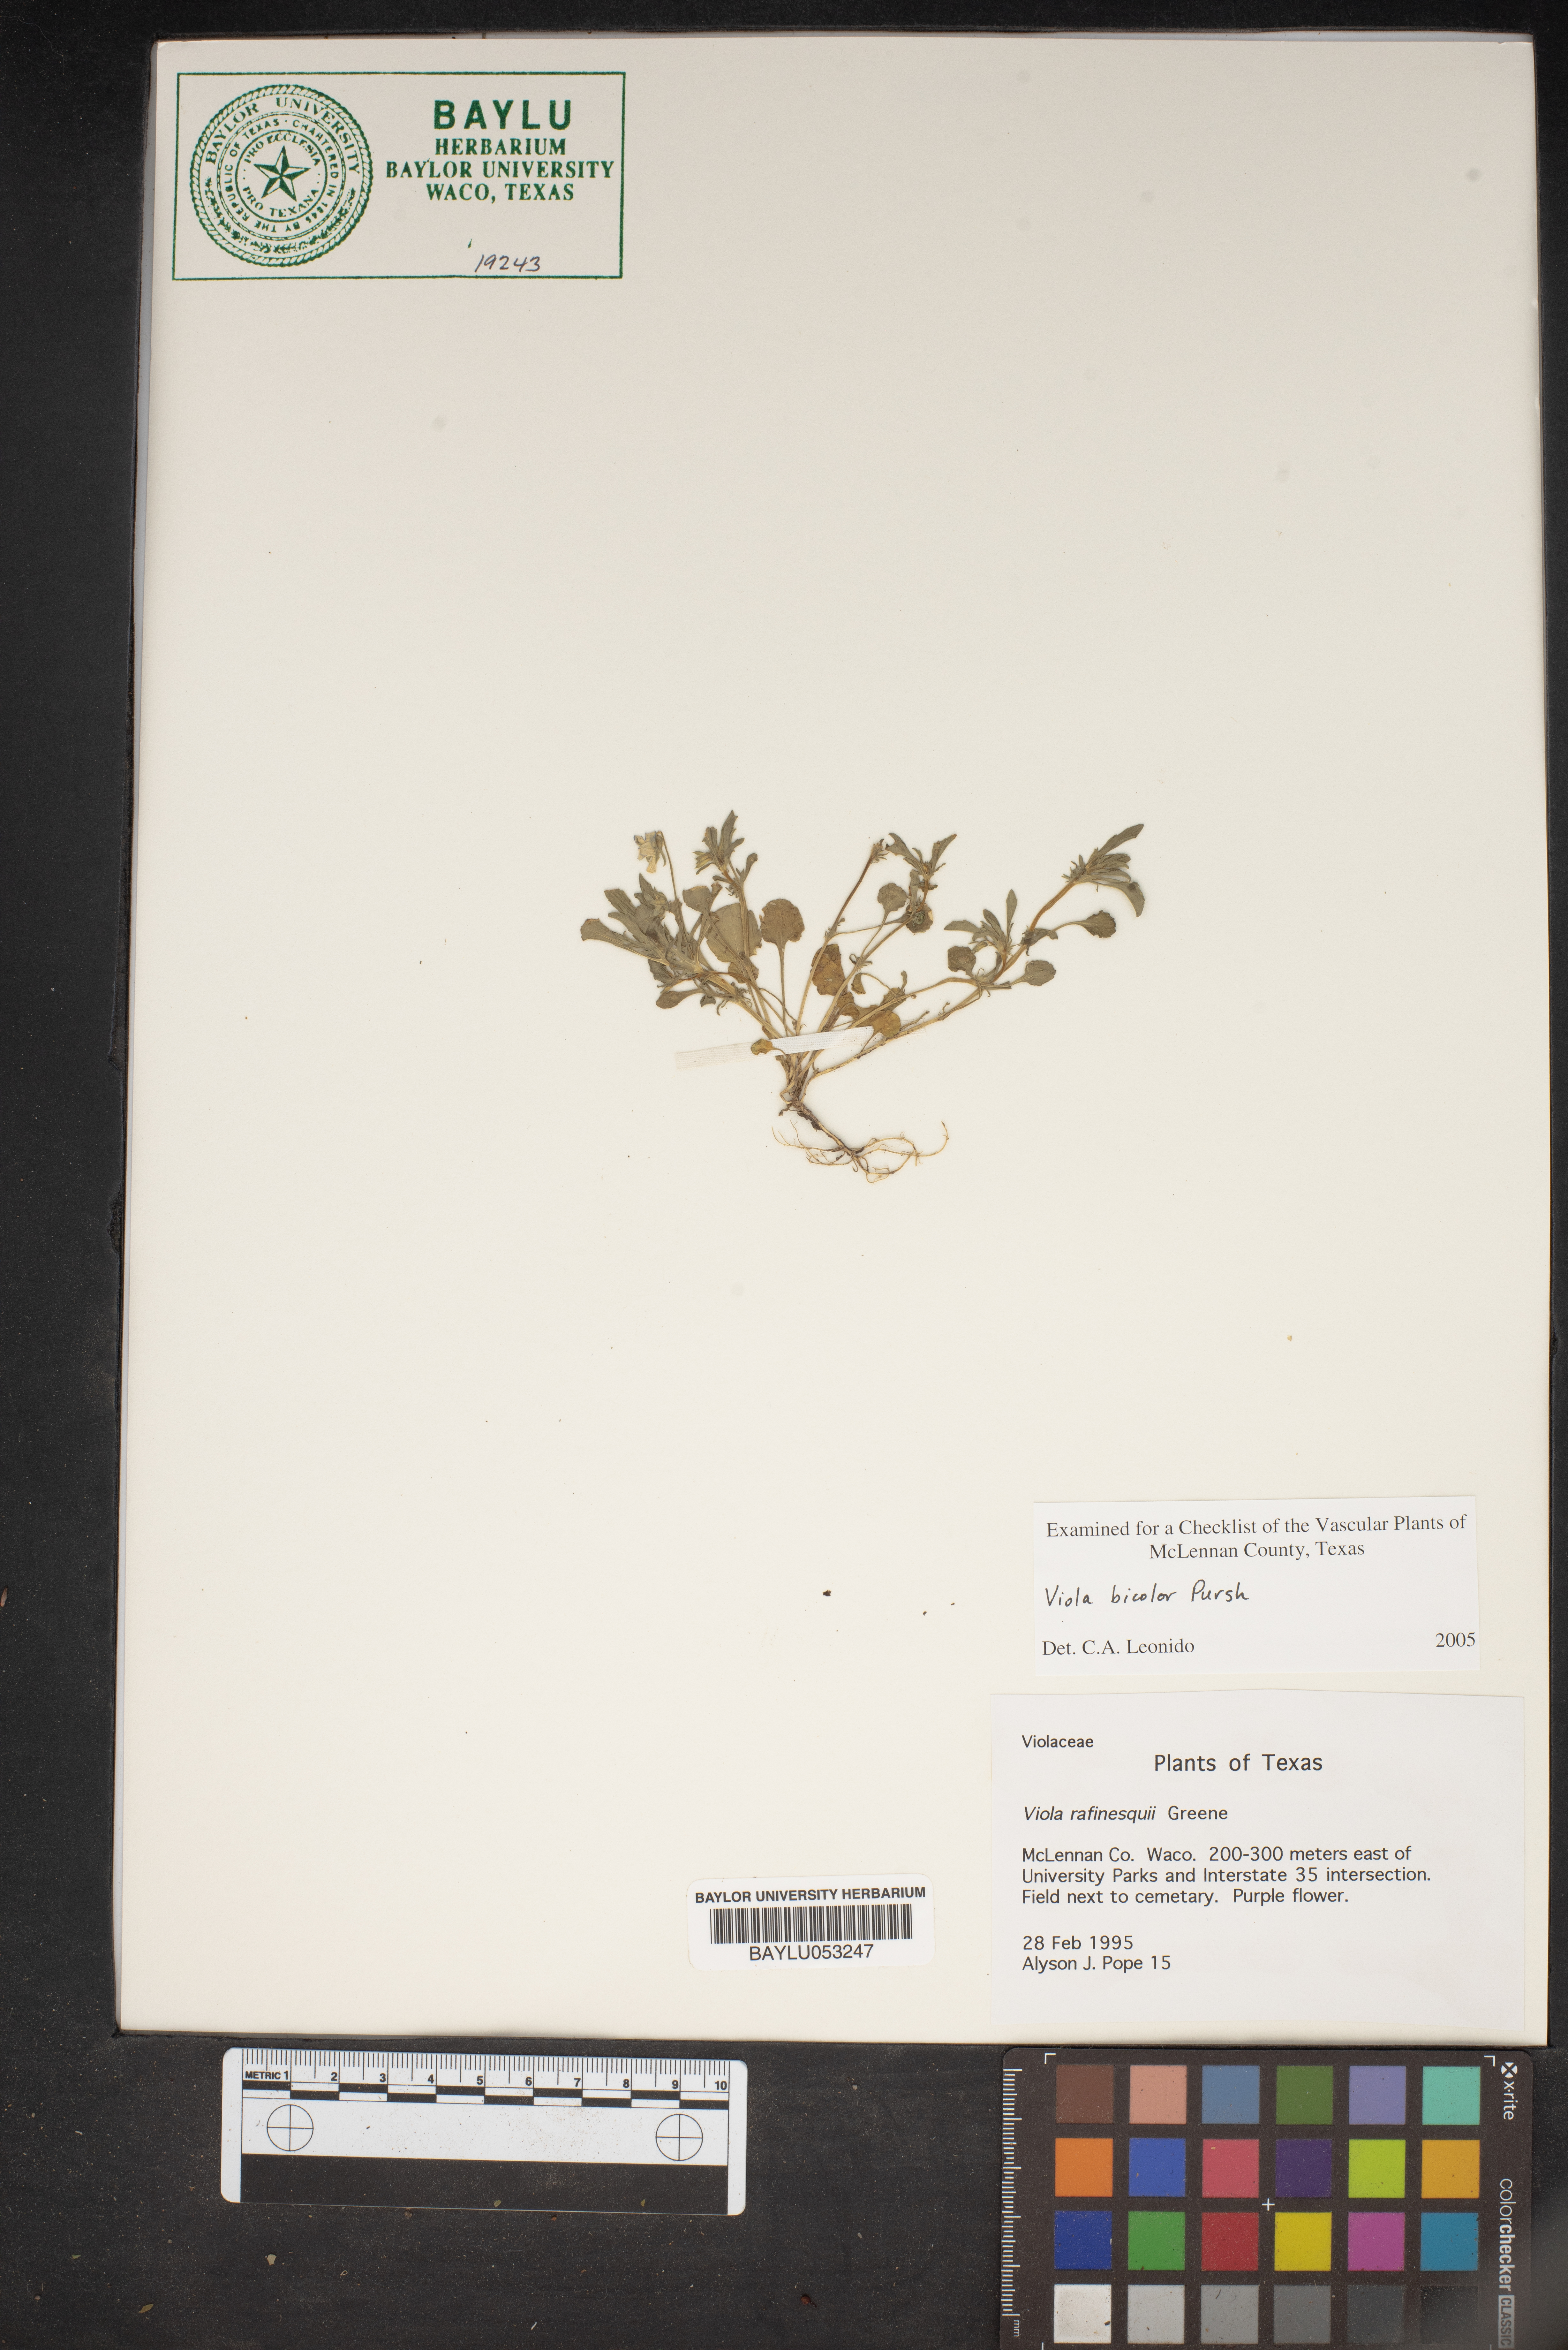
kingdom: Plantae
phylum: Tracheophyta
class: Magnoliopsida
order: Malpighiales
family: Violaceae
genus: Viola
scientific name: Viola rafinesquei
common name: American field pansy
